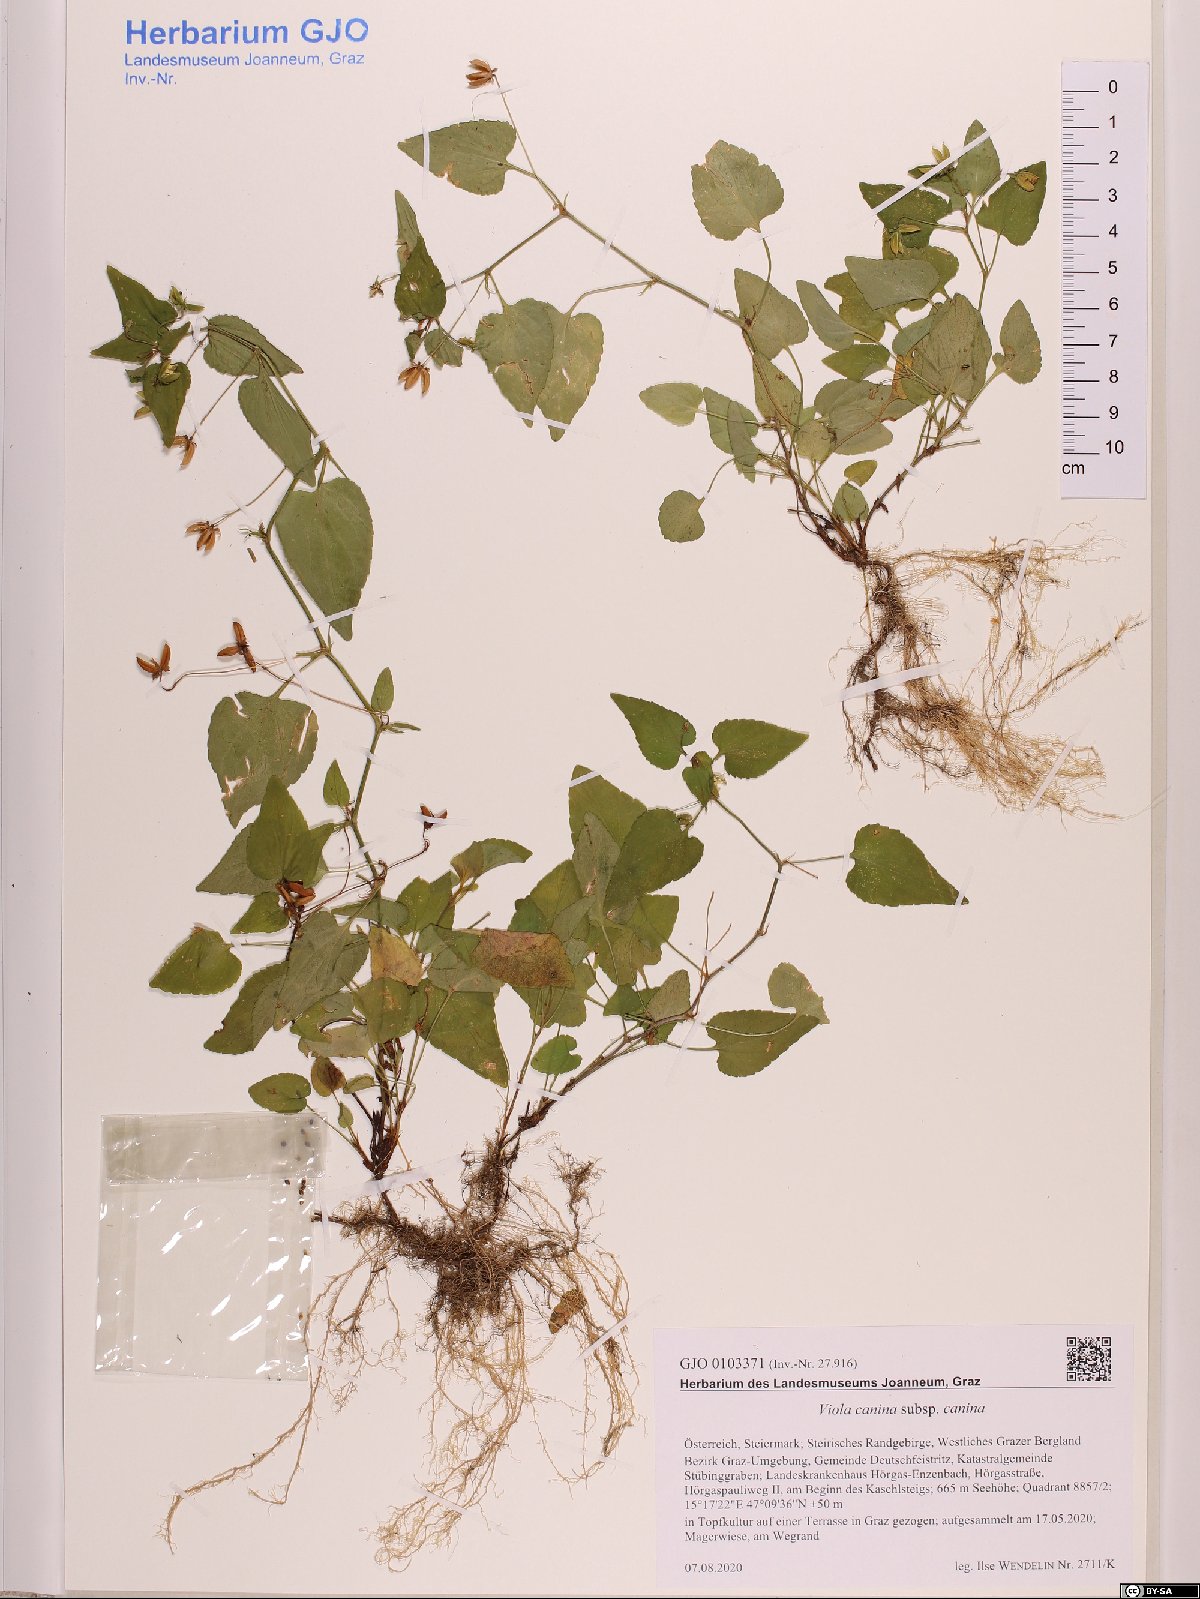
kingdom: Plantae
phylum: Tracheophyta
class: Magnoliopsida
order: Malpighiales
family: Violaceae
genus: Viola
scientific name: Viola canina
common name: Heath dog-violet
